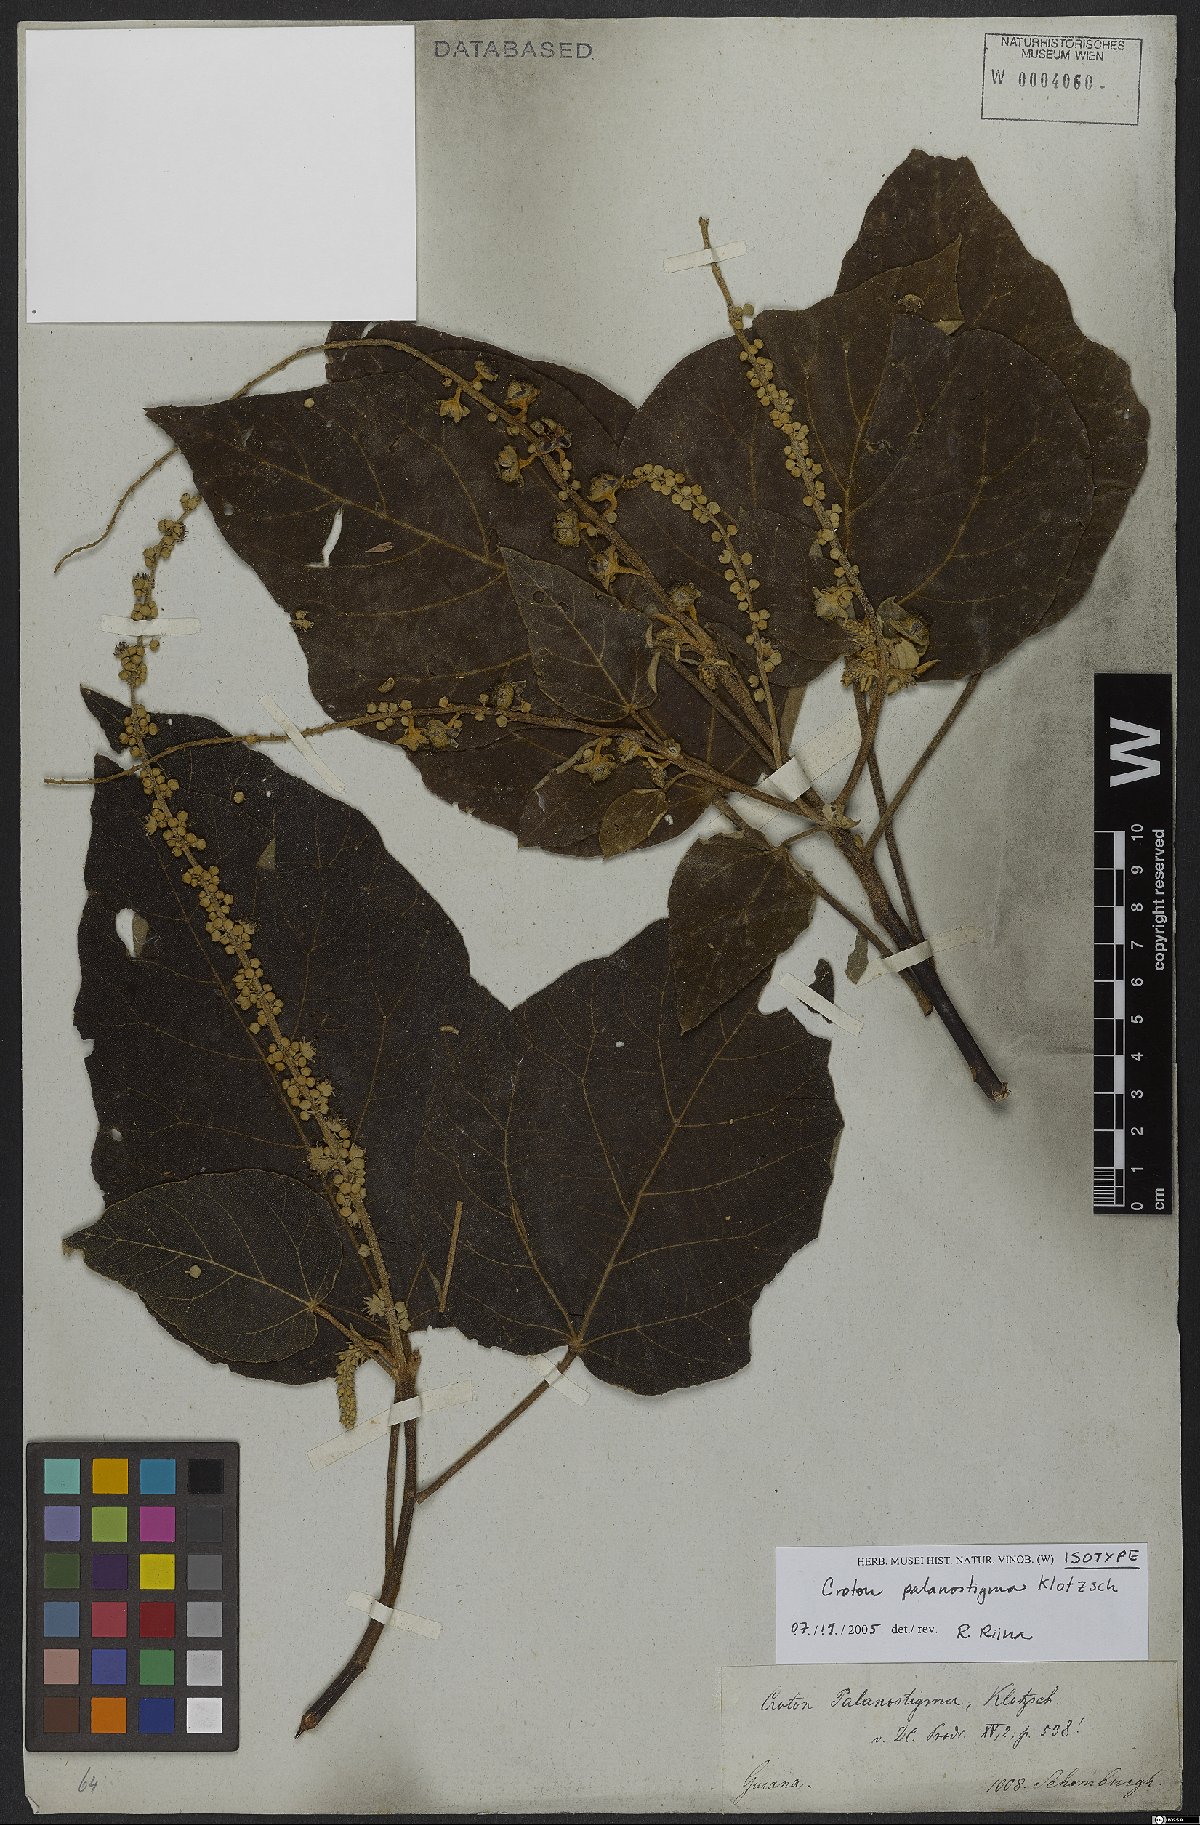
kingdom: Plantae
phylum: Tracheophyta
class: Magnoliopsida
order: Malpighiales
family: Euphorbiaceae
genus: Croton
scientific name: Croton palanostigma
